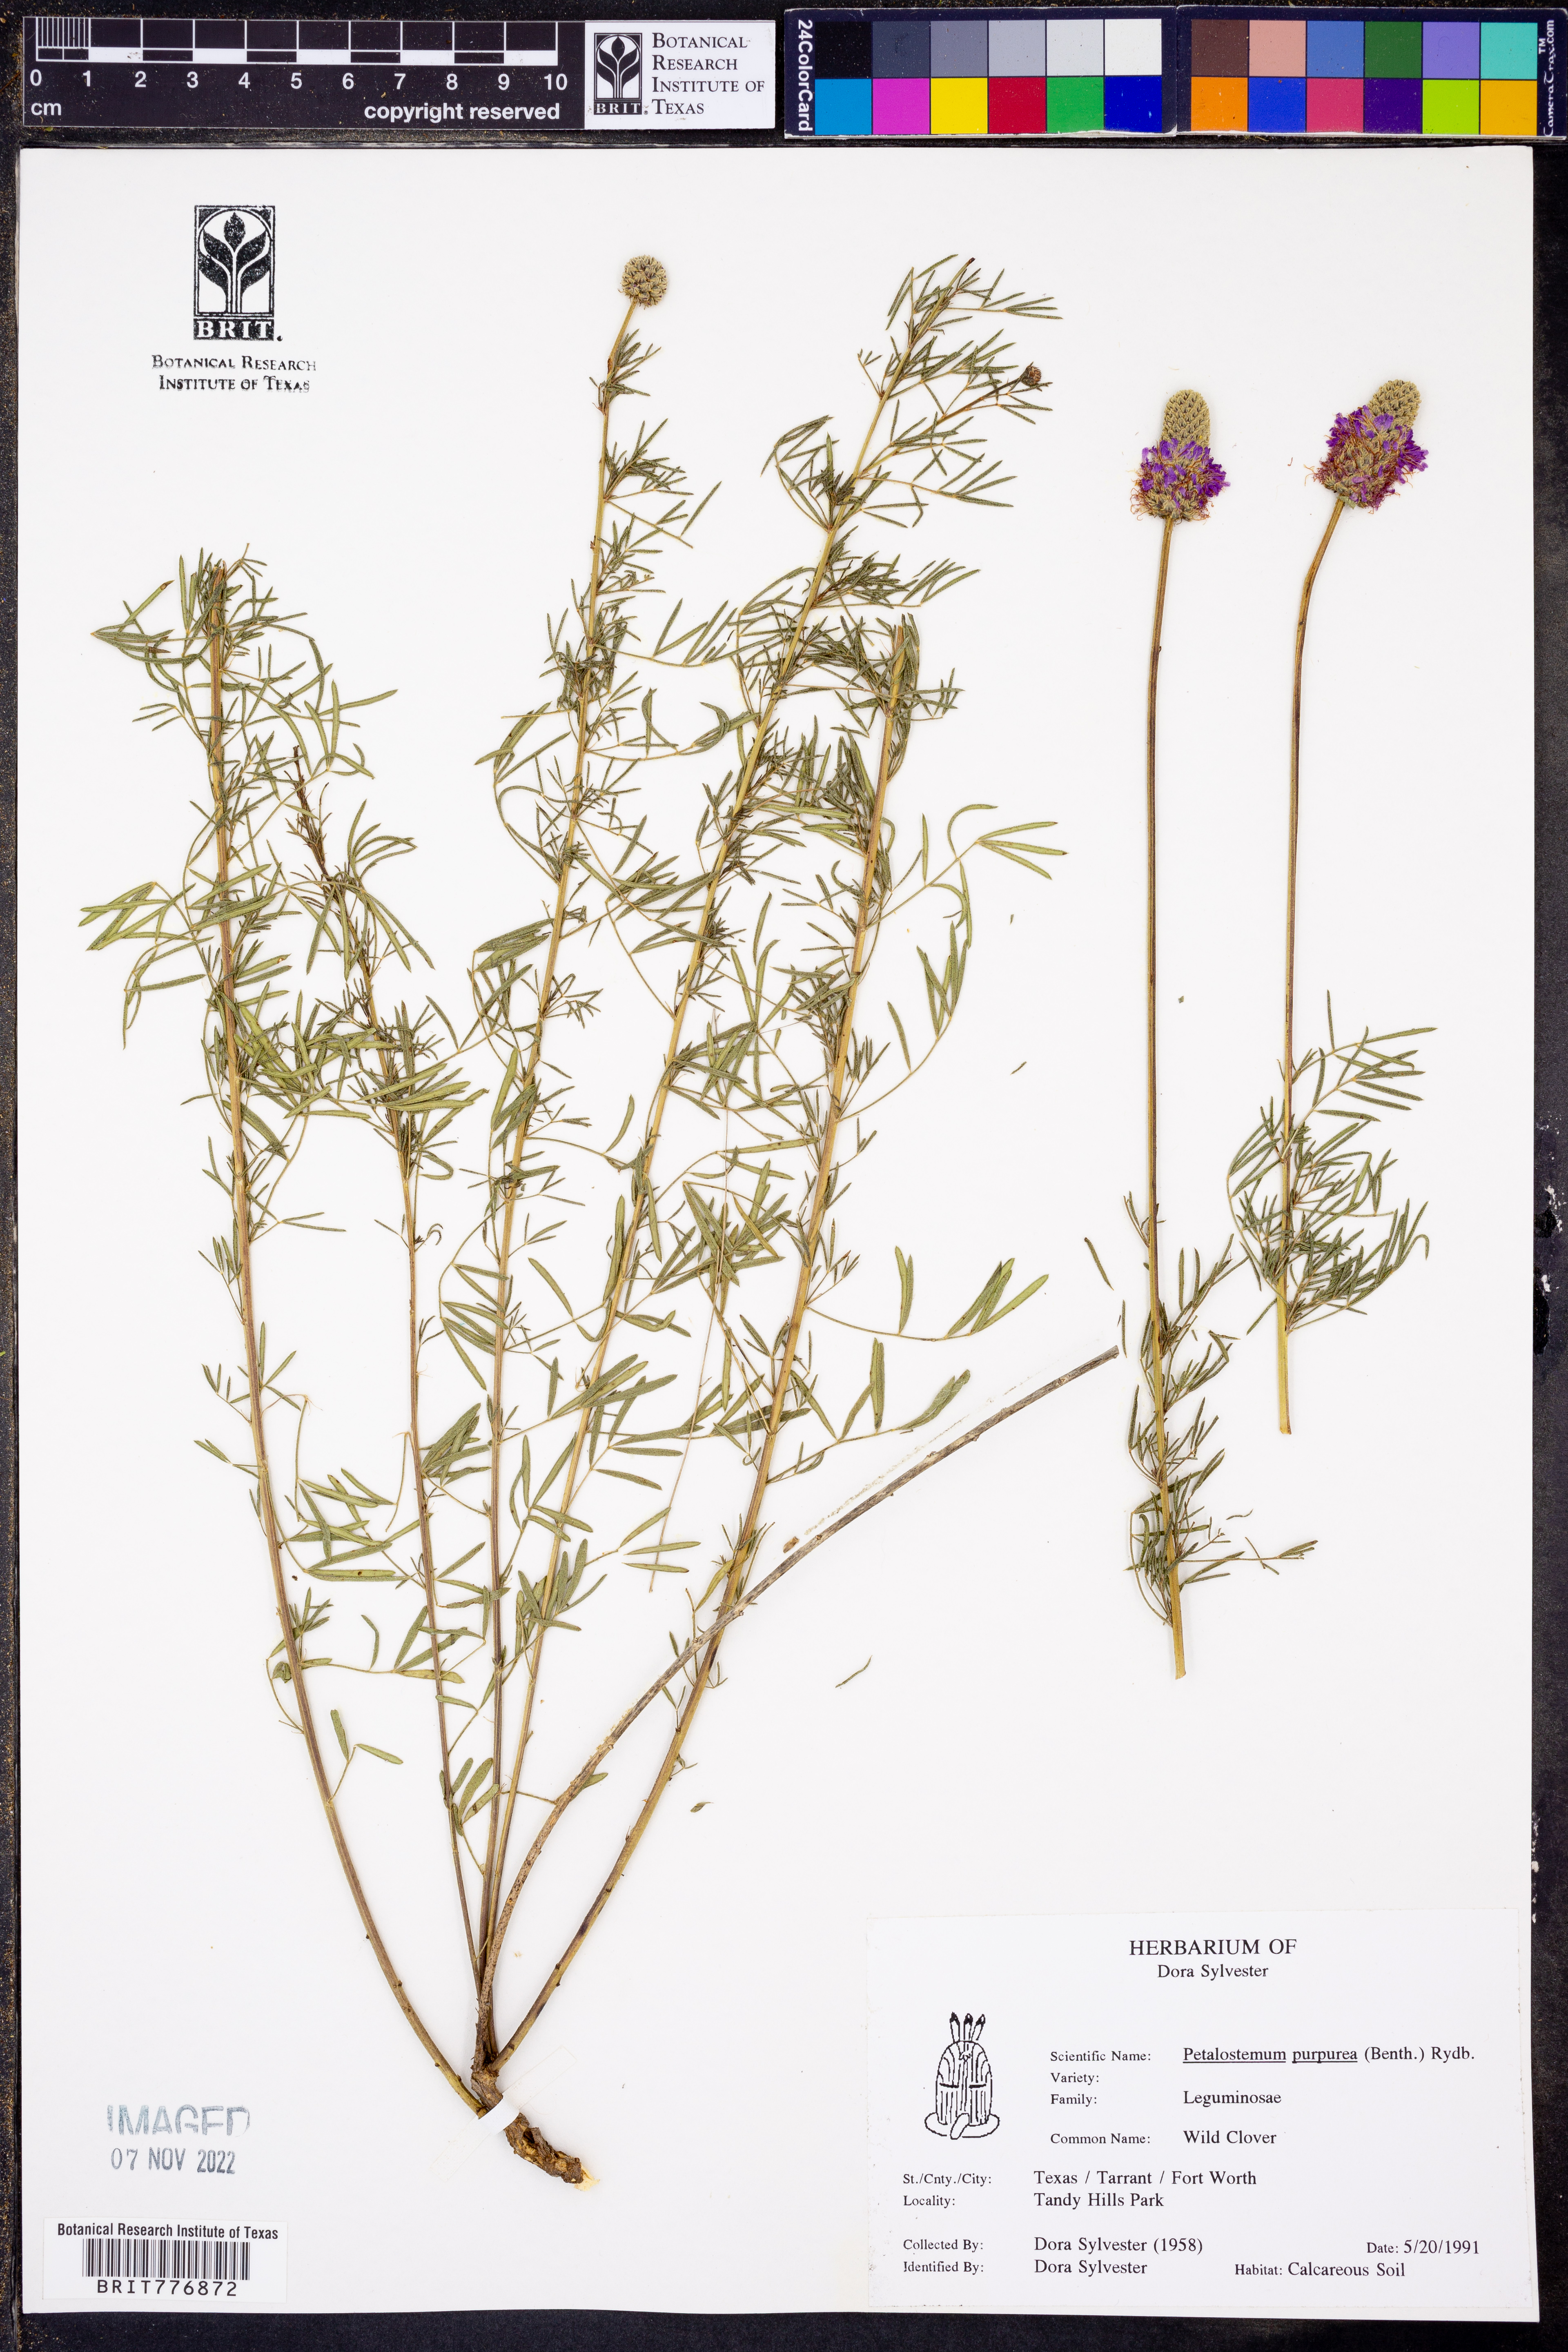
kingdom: Plantae
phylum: Tracheophyta
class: Magnoliopsida
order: Fabales
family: Fabaceae
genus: Petalostemum
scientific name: Petalostemum
